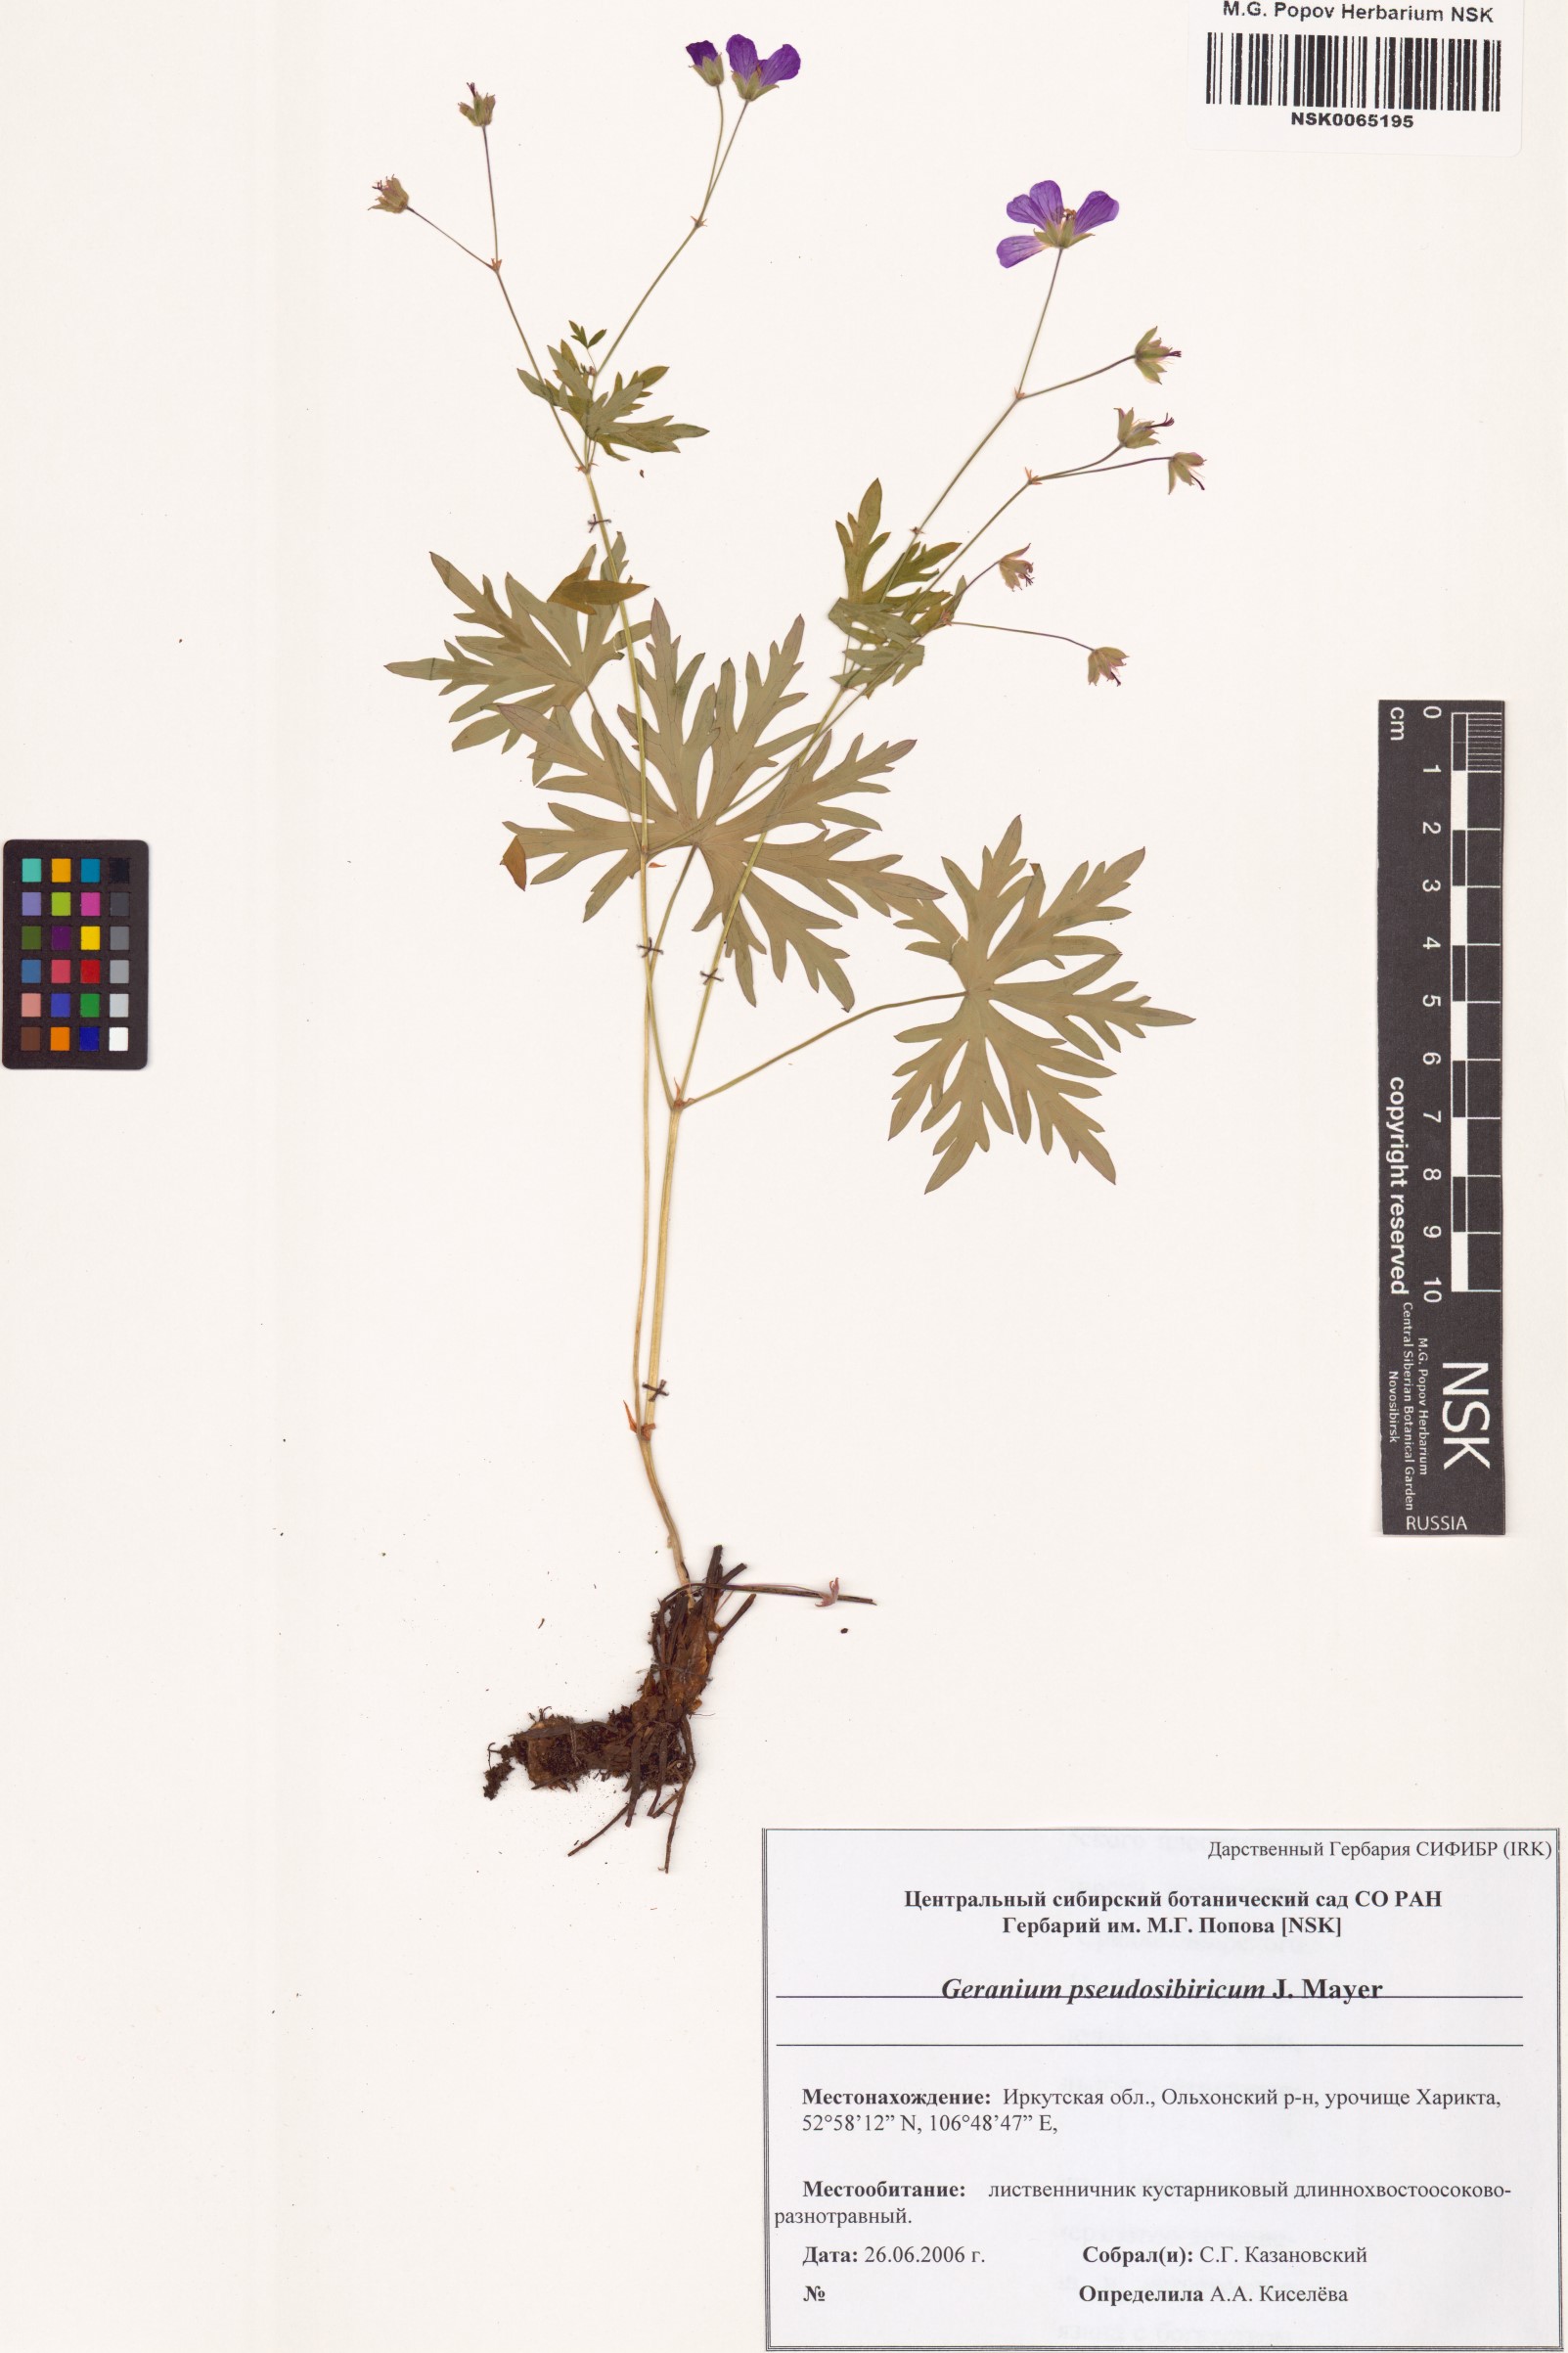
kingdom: Plantae
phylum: Tracheophyta
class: Magnoliopsida
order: Geraniales
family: Geraniaceae
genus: Geranium
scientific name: Geranium pseudosibiricum
